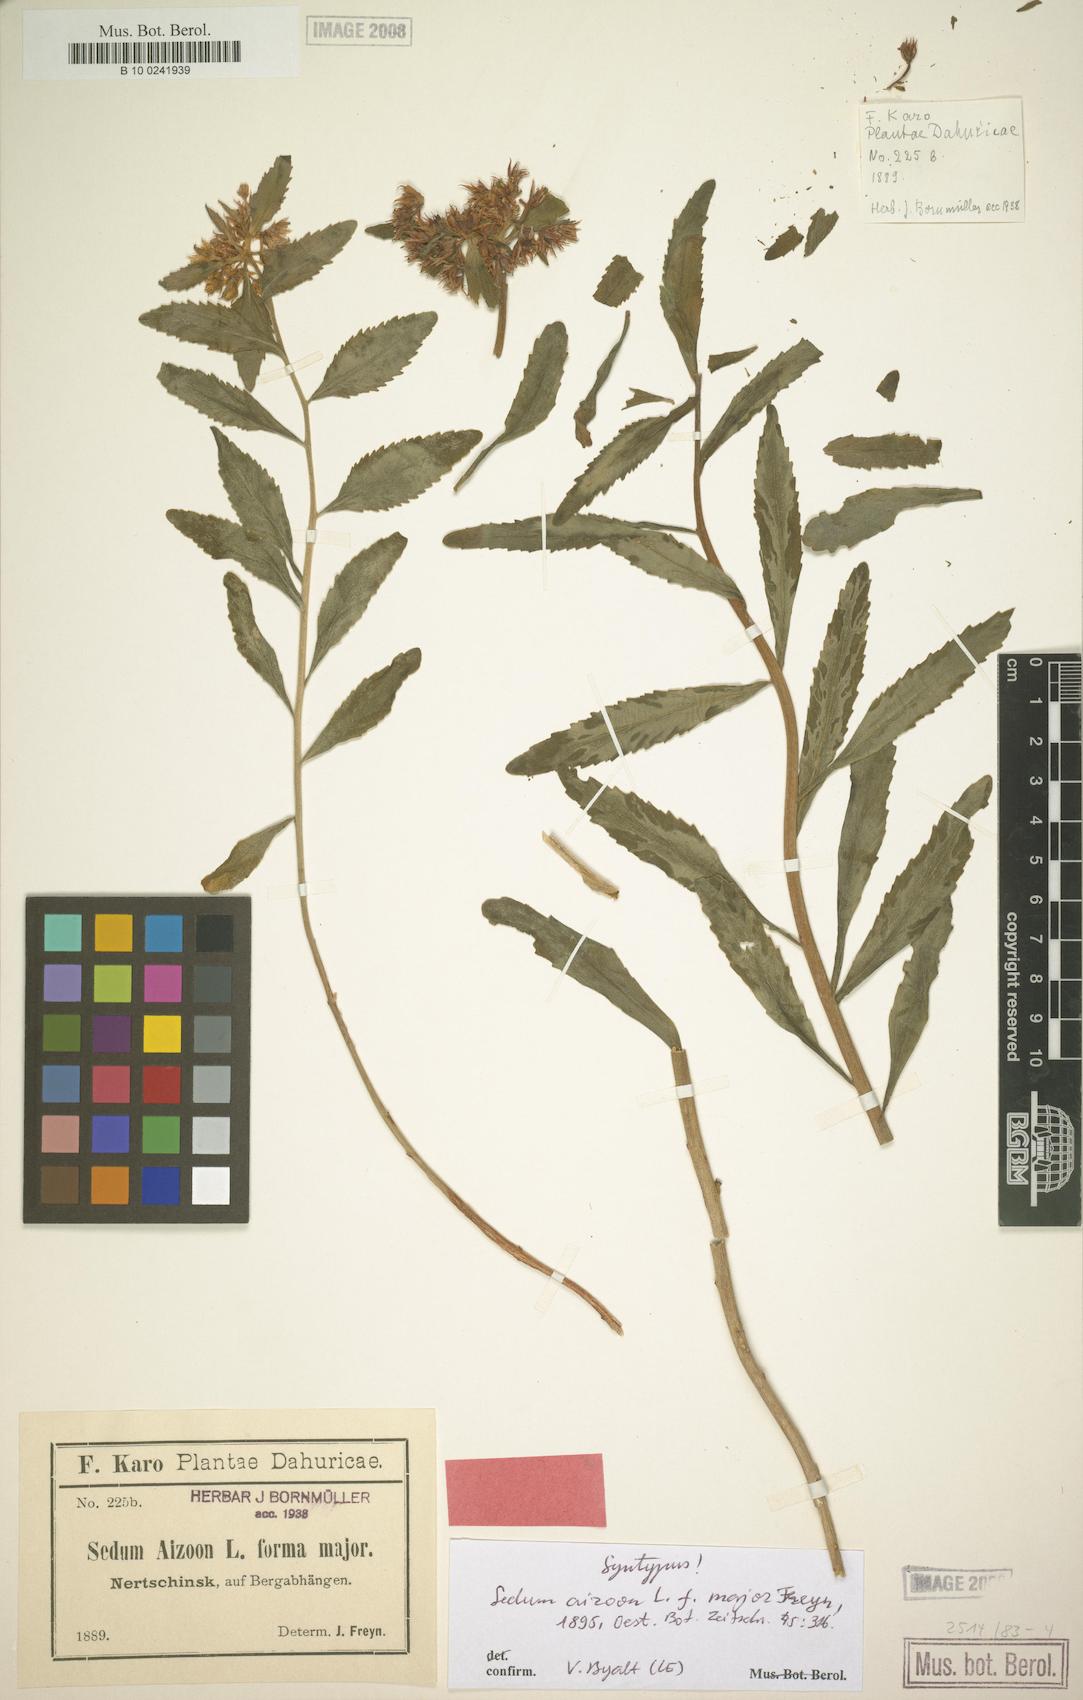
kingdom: Plantae
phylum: Tracheophyta
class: Magnoliopsida
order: Saxifragales
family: Crassulaceae
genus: Sedum
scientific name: Sedum aizoon
